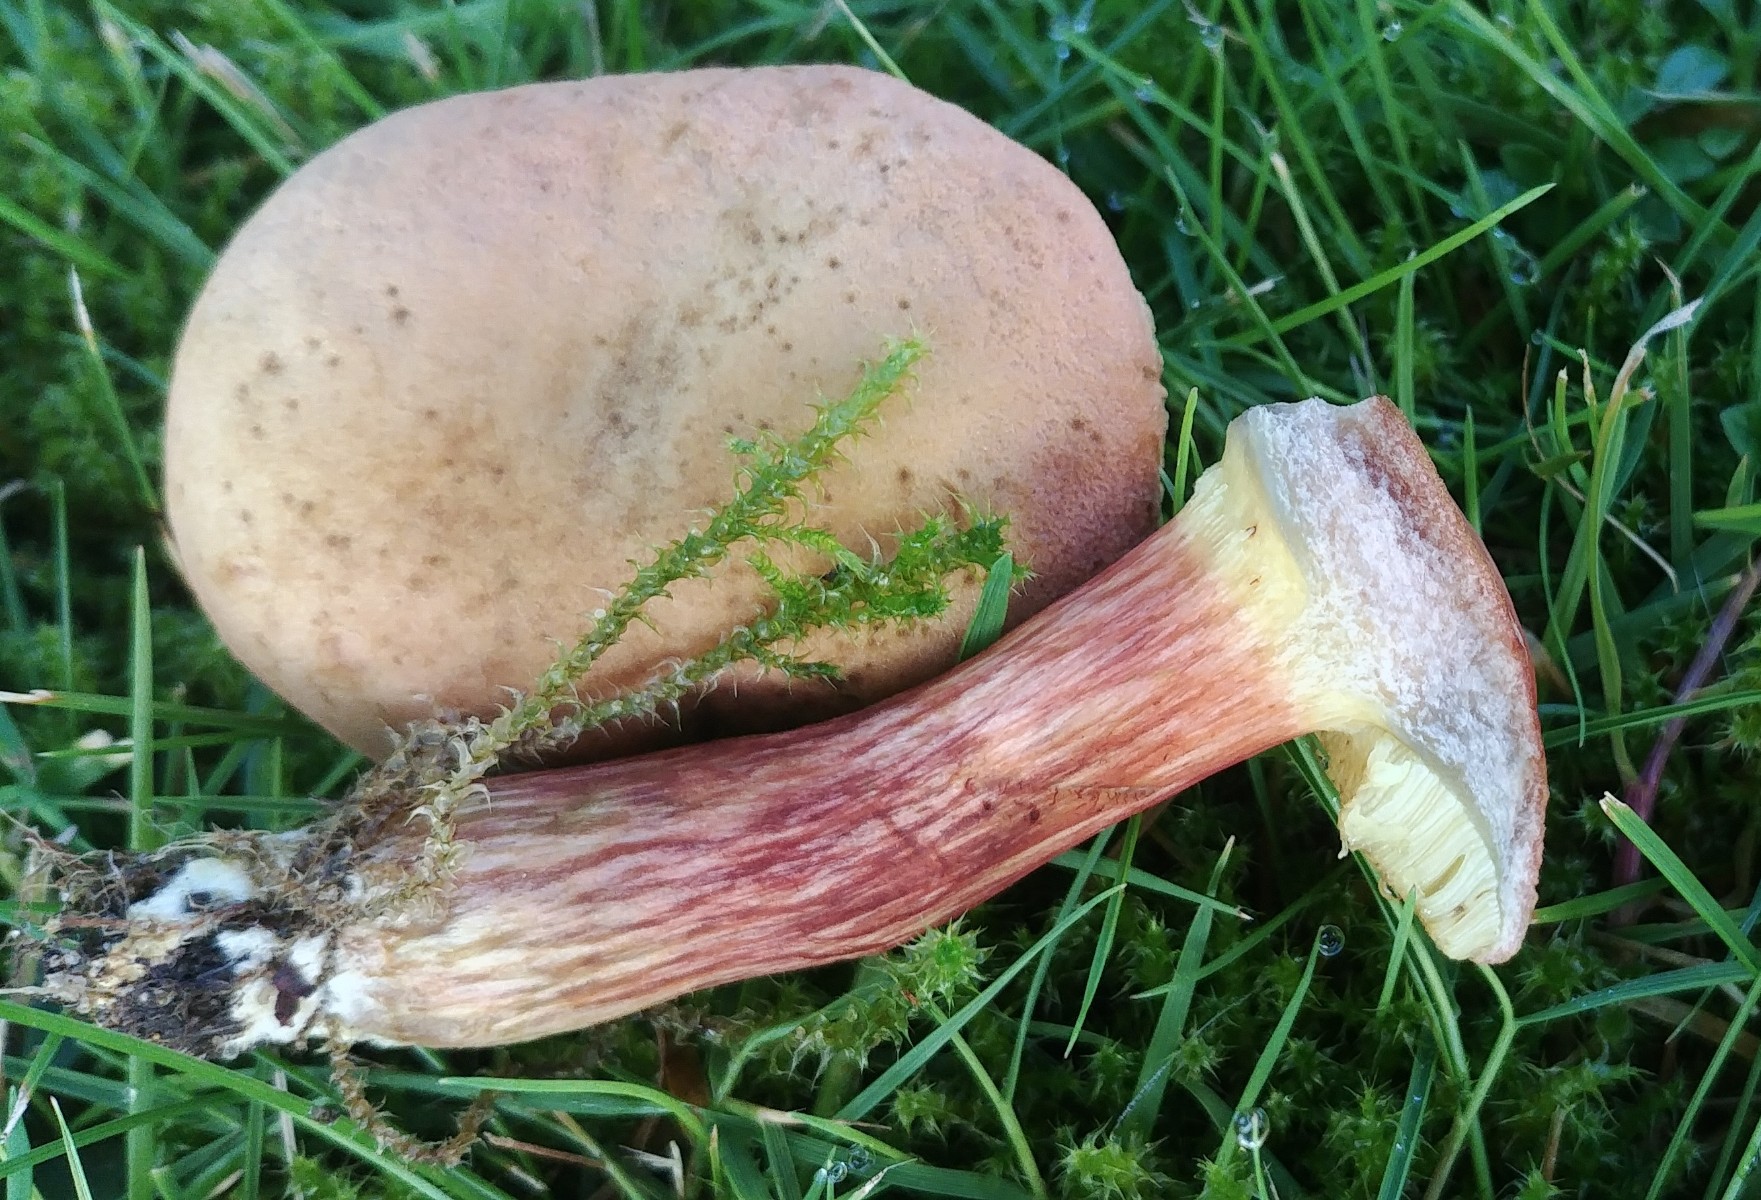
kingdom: Fungi
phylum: Basidiomycota
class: Agaricomycetes
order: Boletales
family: Boletaceae
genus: Hortiboletus
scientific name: Hortiboletus bubalinus
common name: aurora-rørhat
